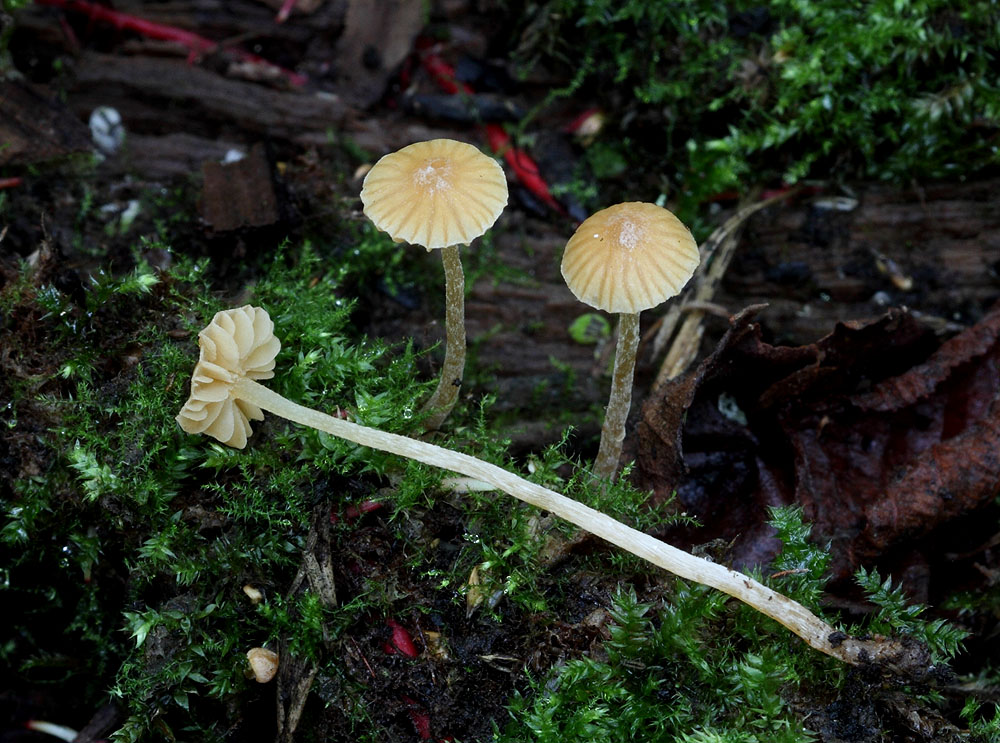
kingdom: Fungi
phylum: Basidiomycota
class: Agaricomycetes
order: Agaricales
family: Hymenogastraceae
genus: Galerina
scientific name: Galerina clavata
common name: kær-hjelmhat
